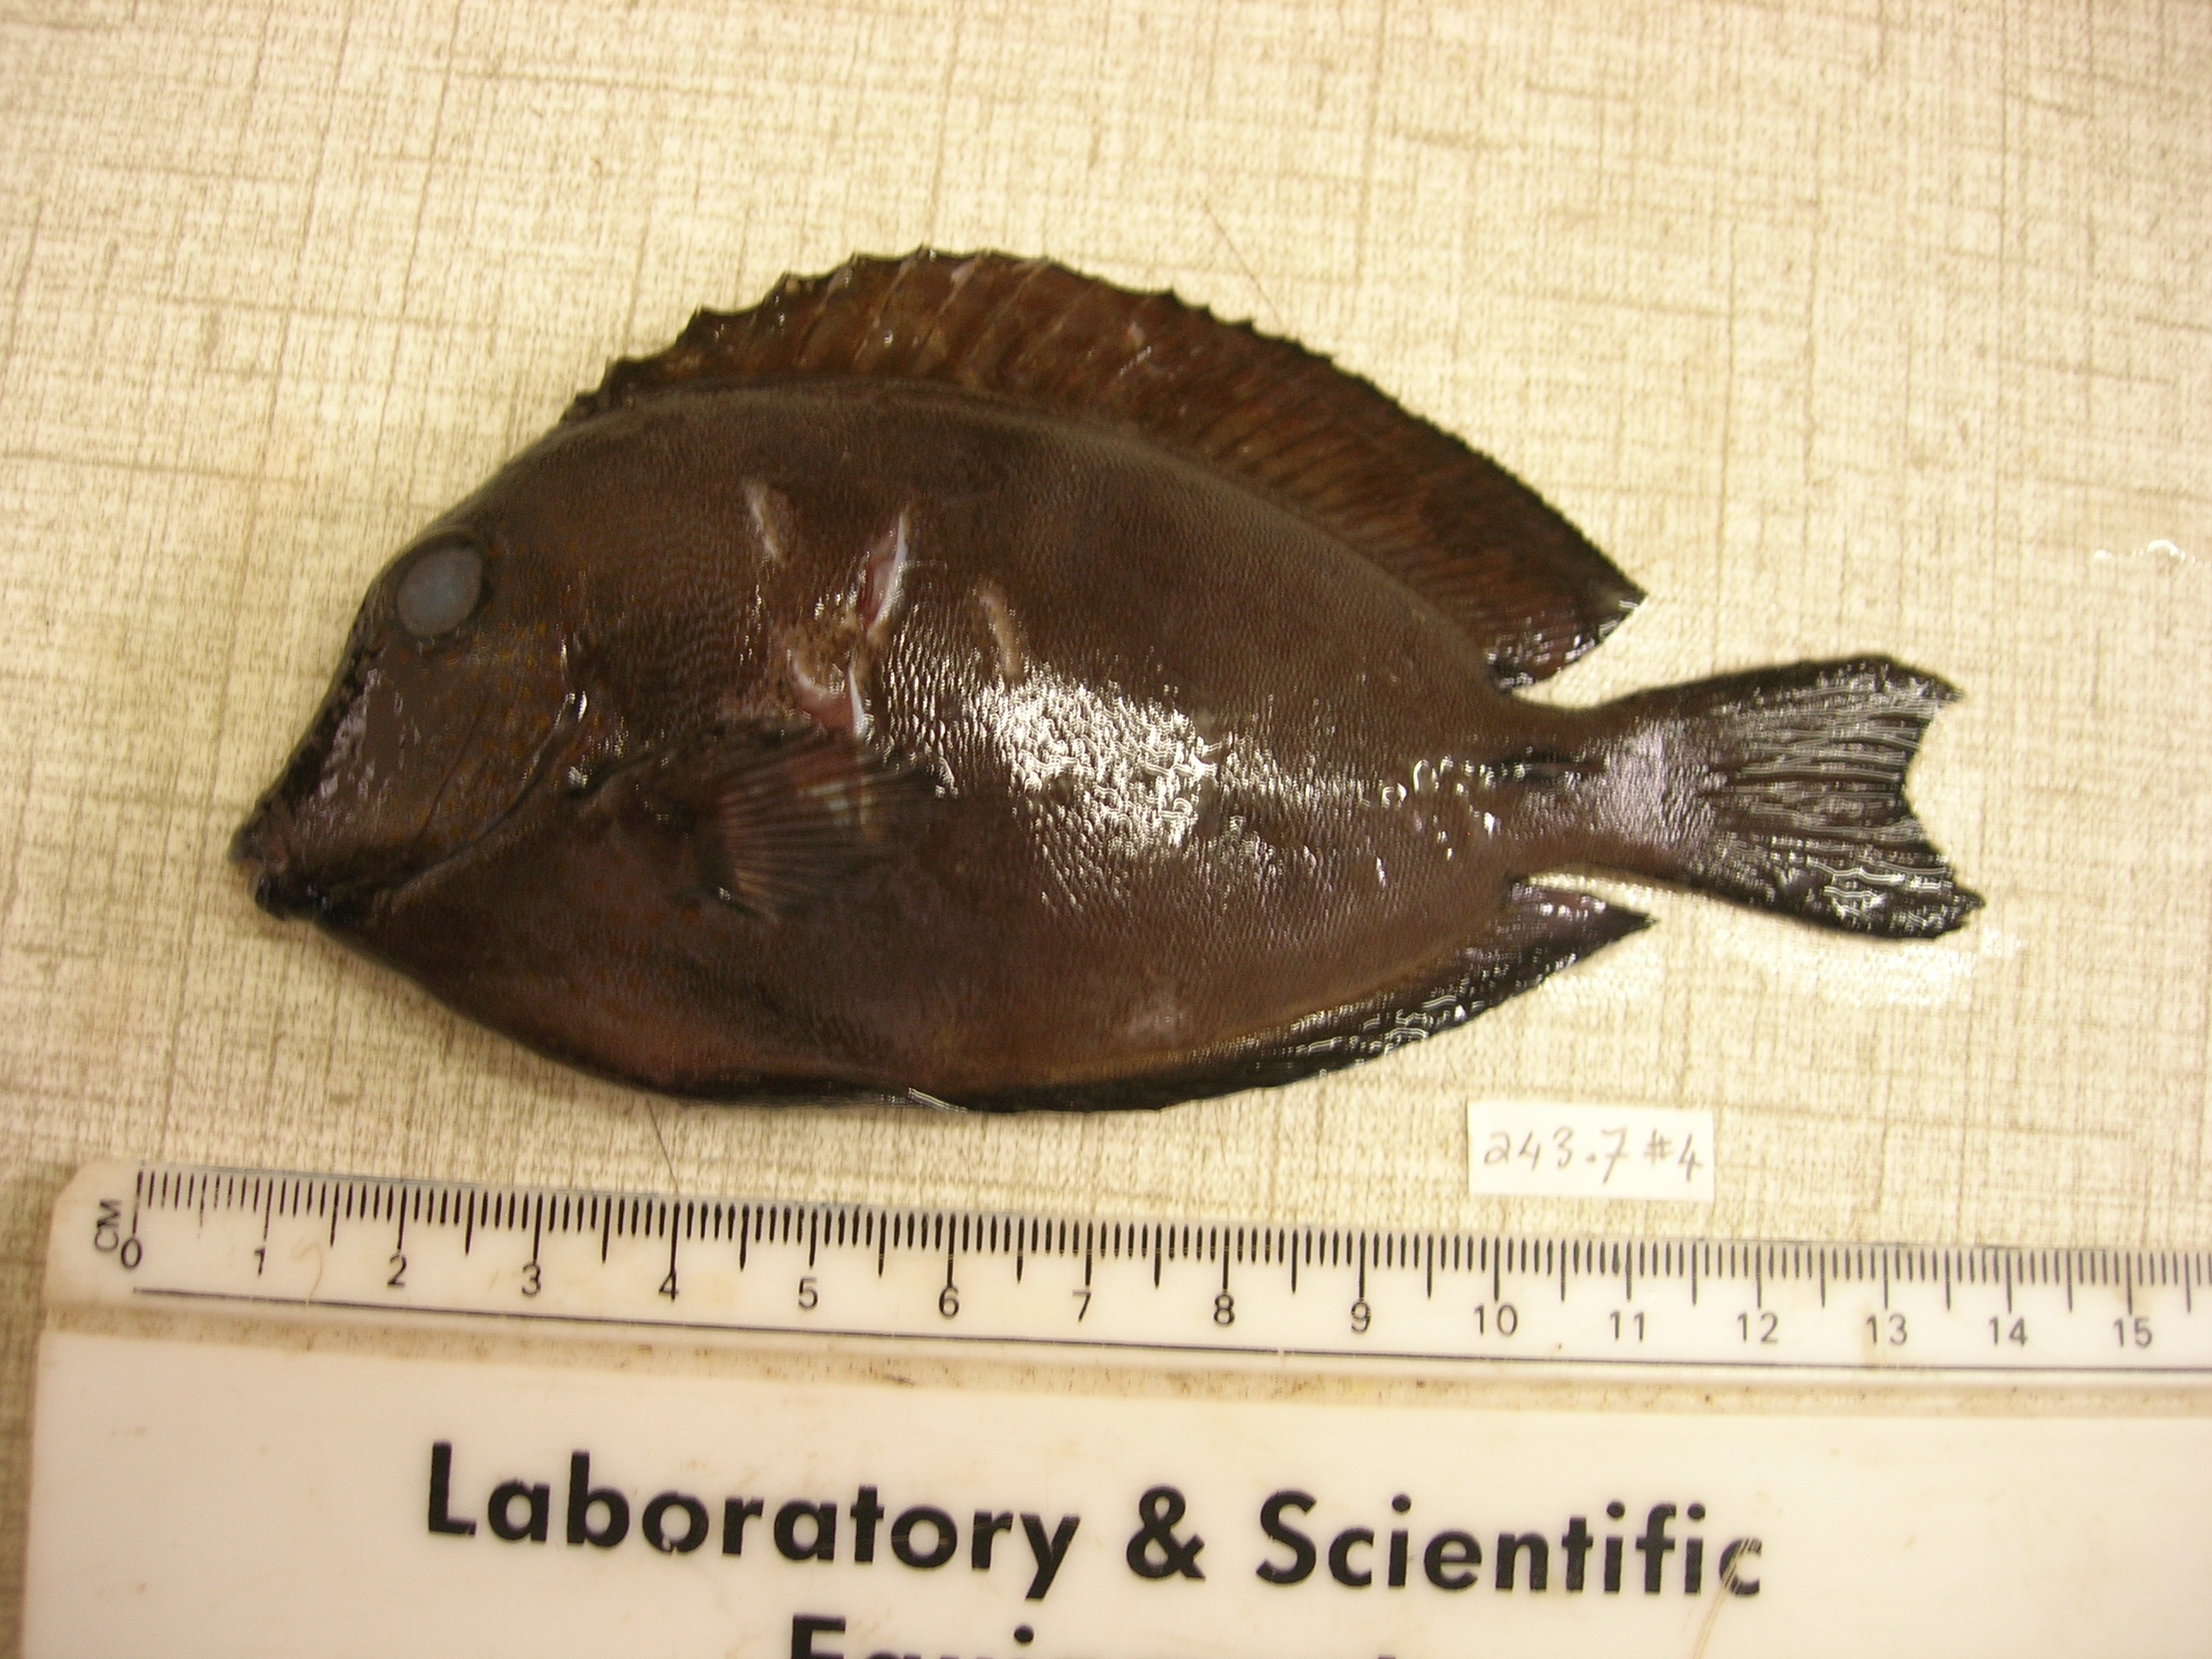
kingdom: Animalia
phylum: Chordata
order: Perciformes
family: Acanthuridae
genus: Acanthurus
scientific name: Acanthurus nigrofuscus
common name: Blackspot surgeonfish
